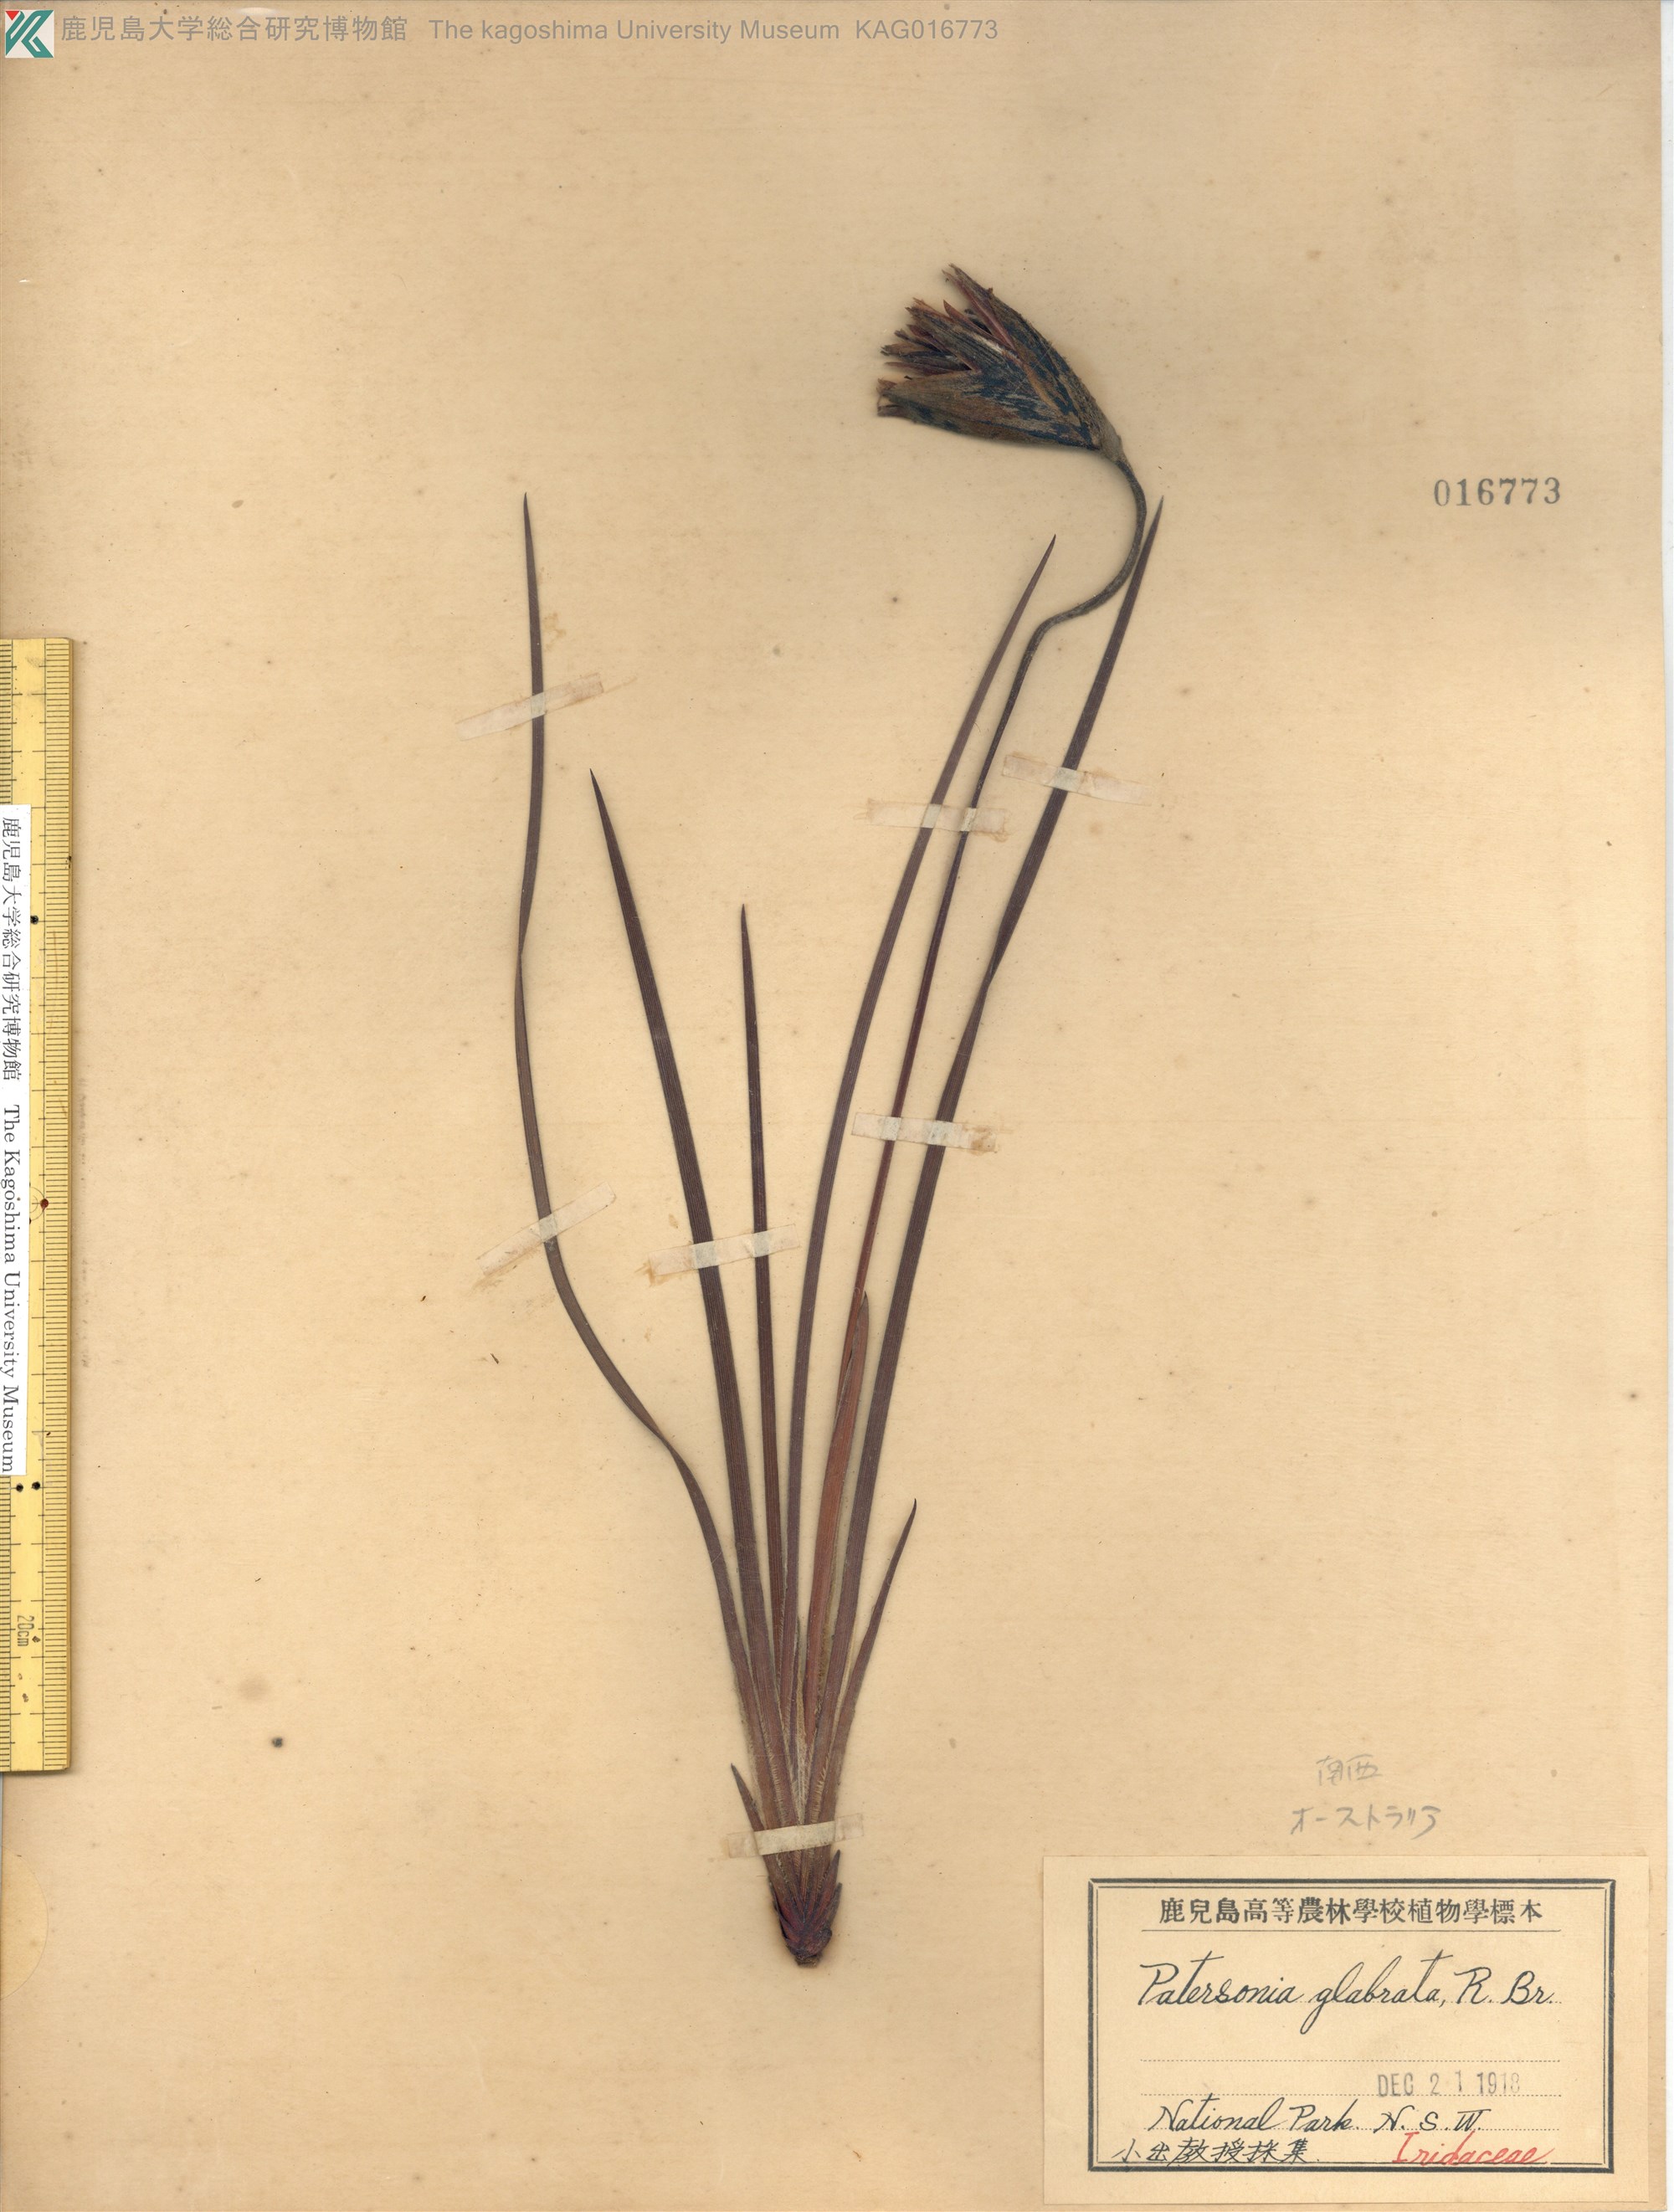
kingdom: Plantae
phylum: Tracheophyta
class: Liliopsida
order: Asparagales
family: Iridaceae
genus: Patersonia
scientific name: Patersonia glabrata
